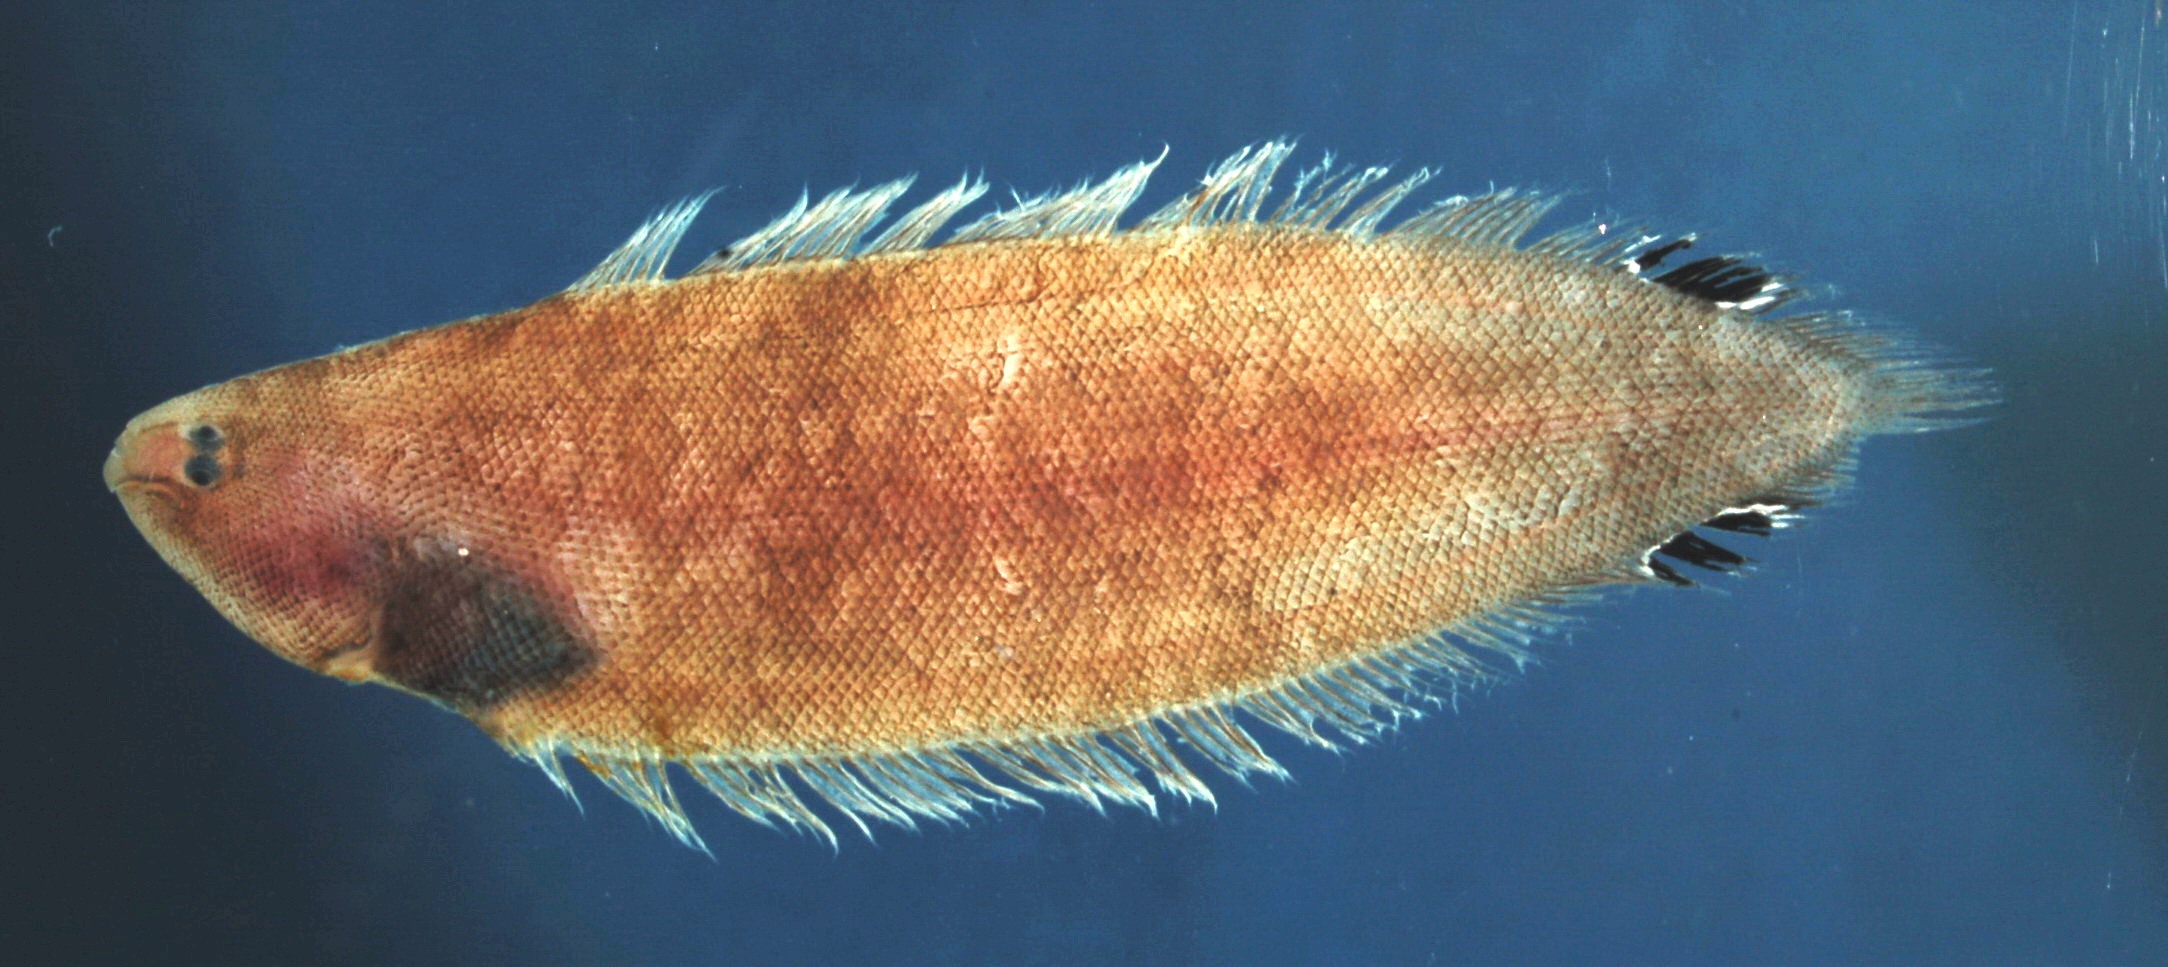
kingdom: Animalia
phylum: Chordata
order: Pleuronectiformes
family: Cynoglossidae
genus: Symphurus
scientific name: Symphurus ocellatus
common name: Double-spot tonguesole
